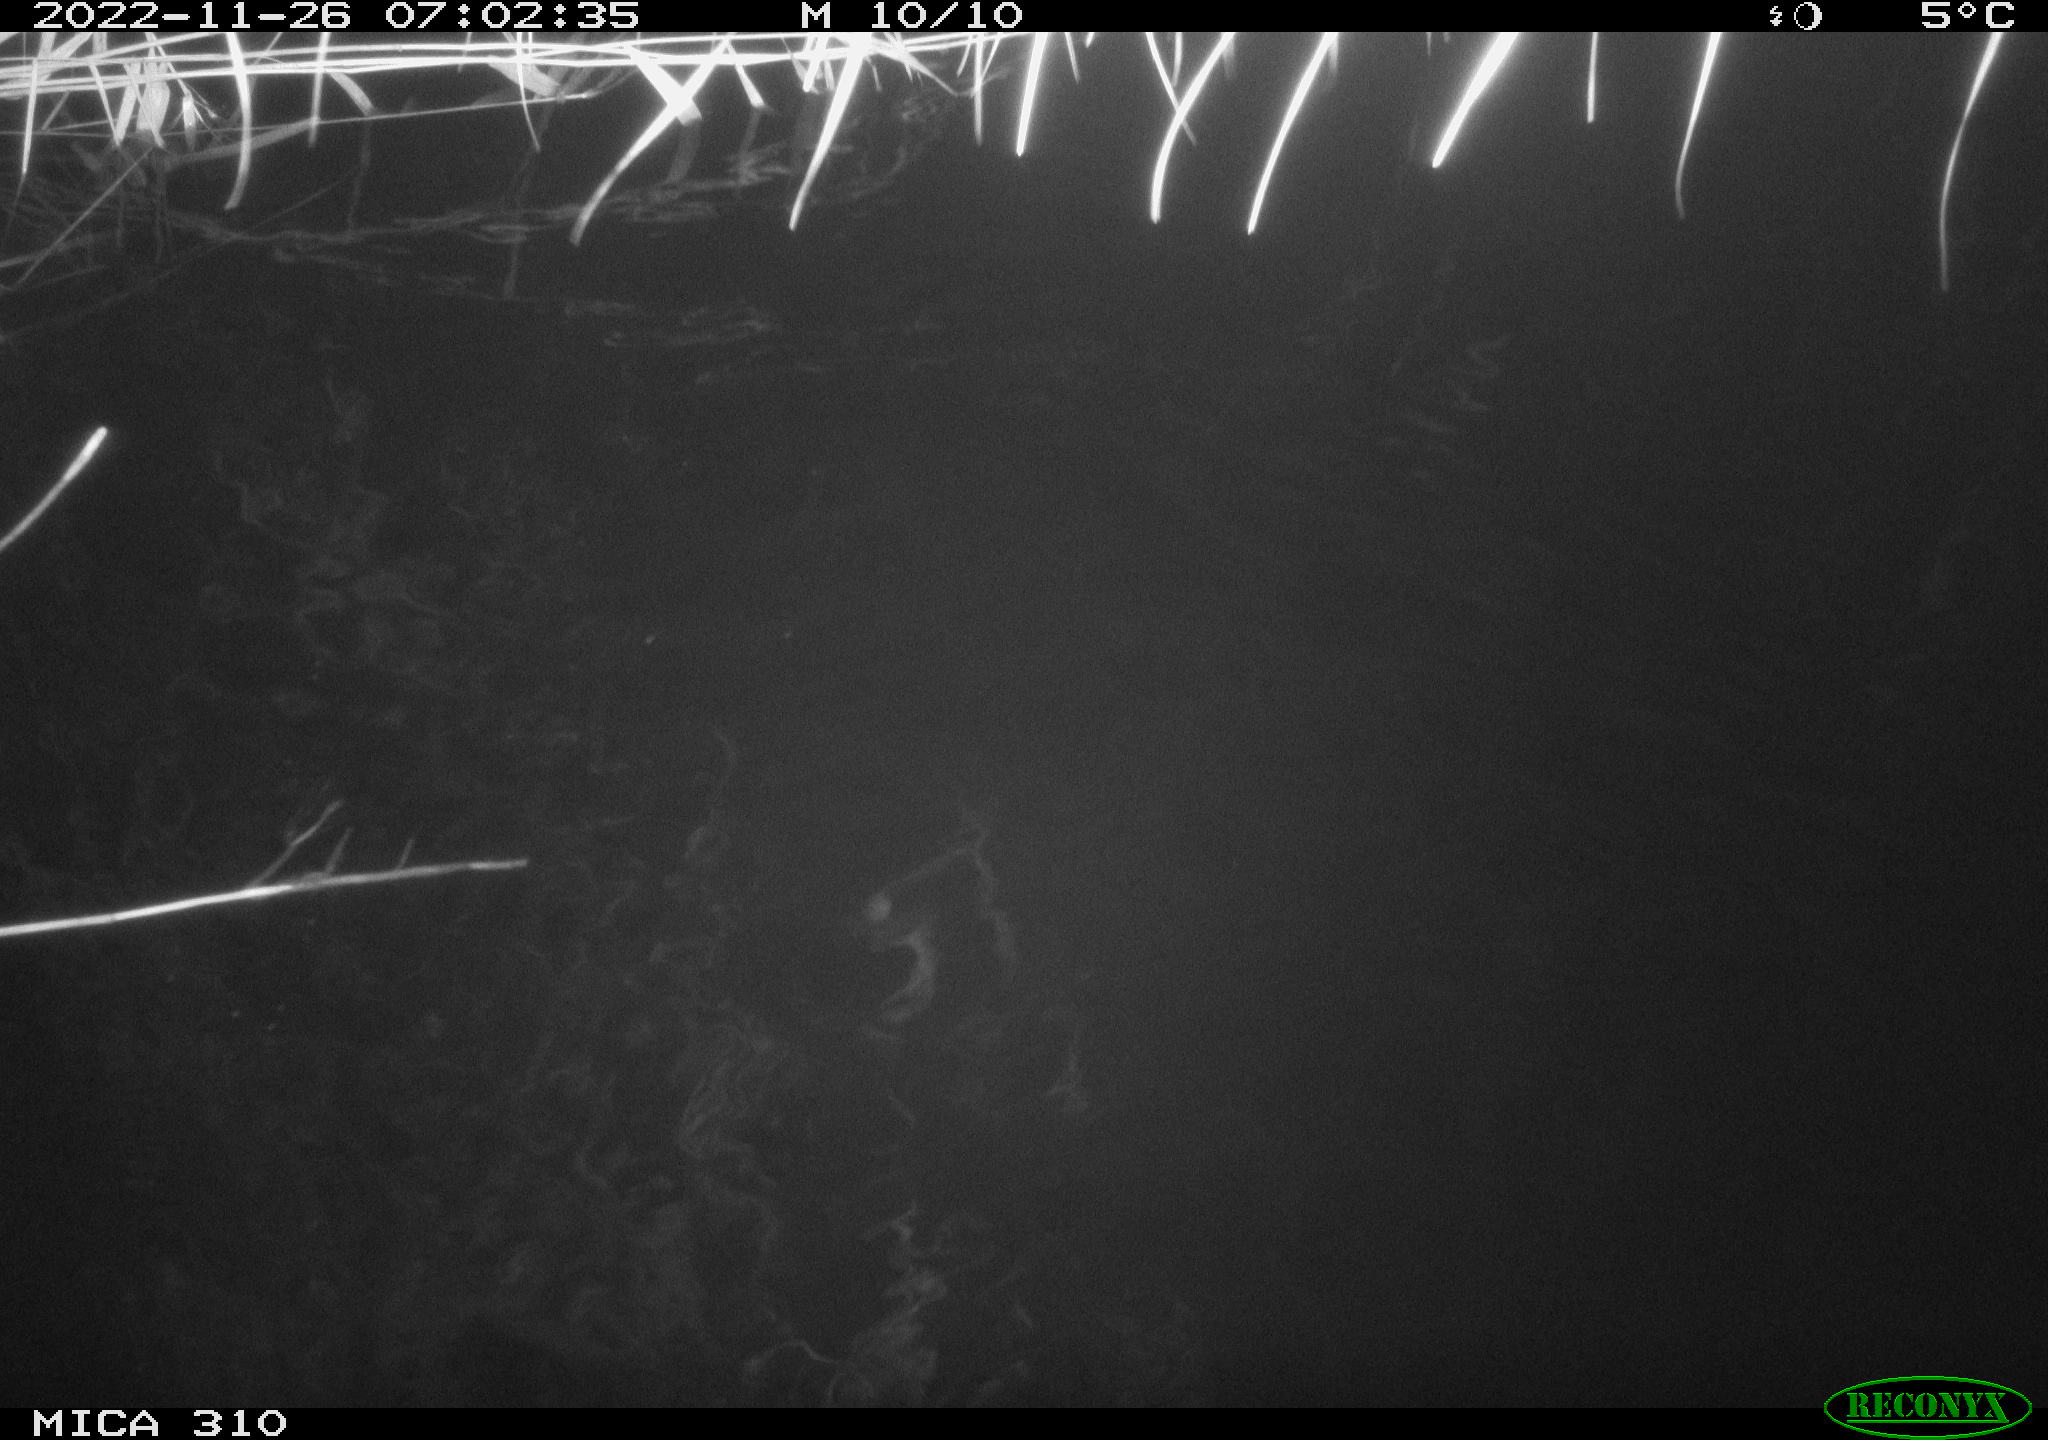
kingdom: Animalia
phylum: Chordata
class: Mammalia
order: Rodentia
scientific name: Rodentia
